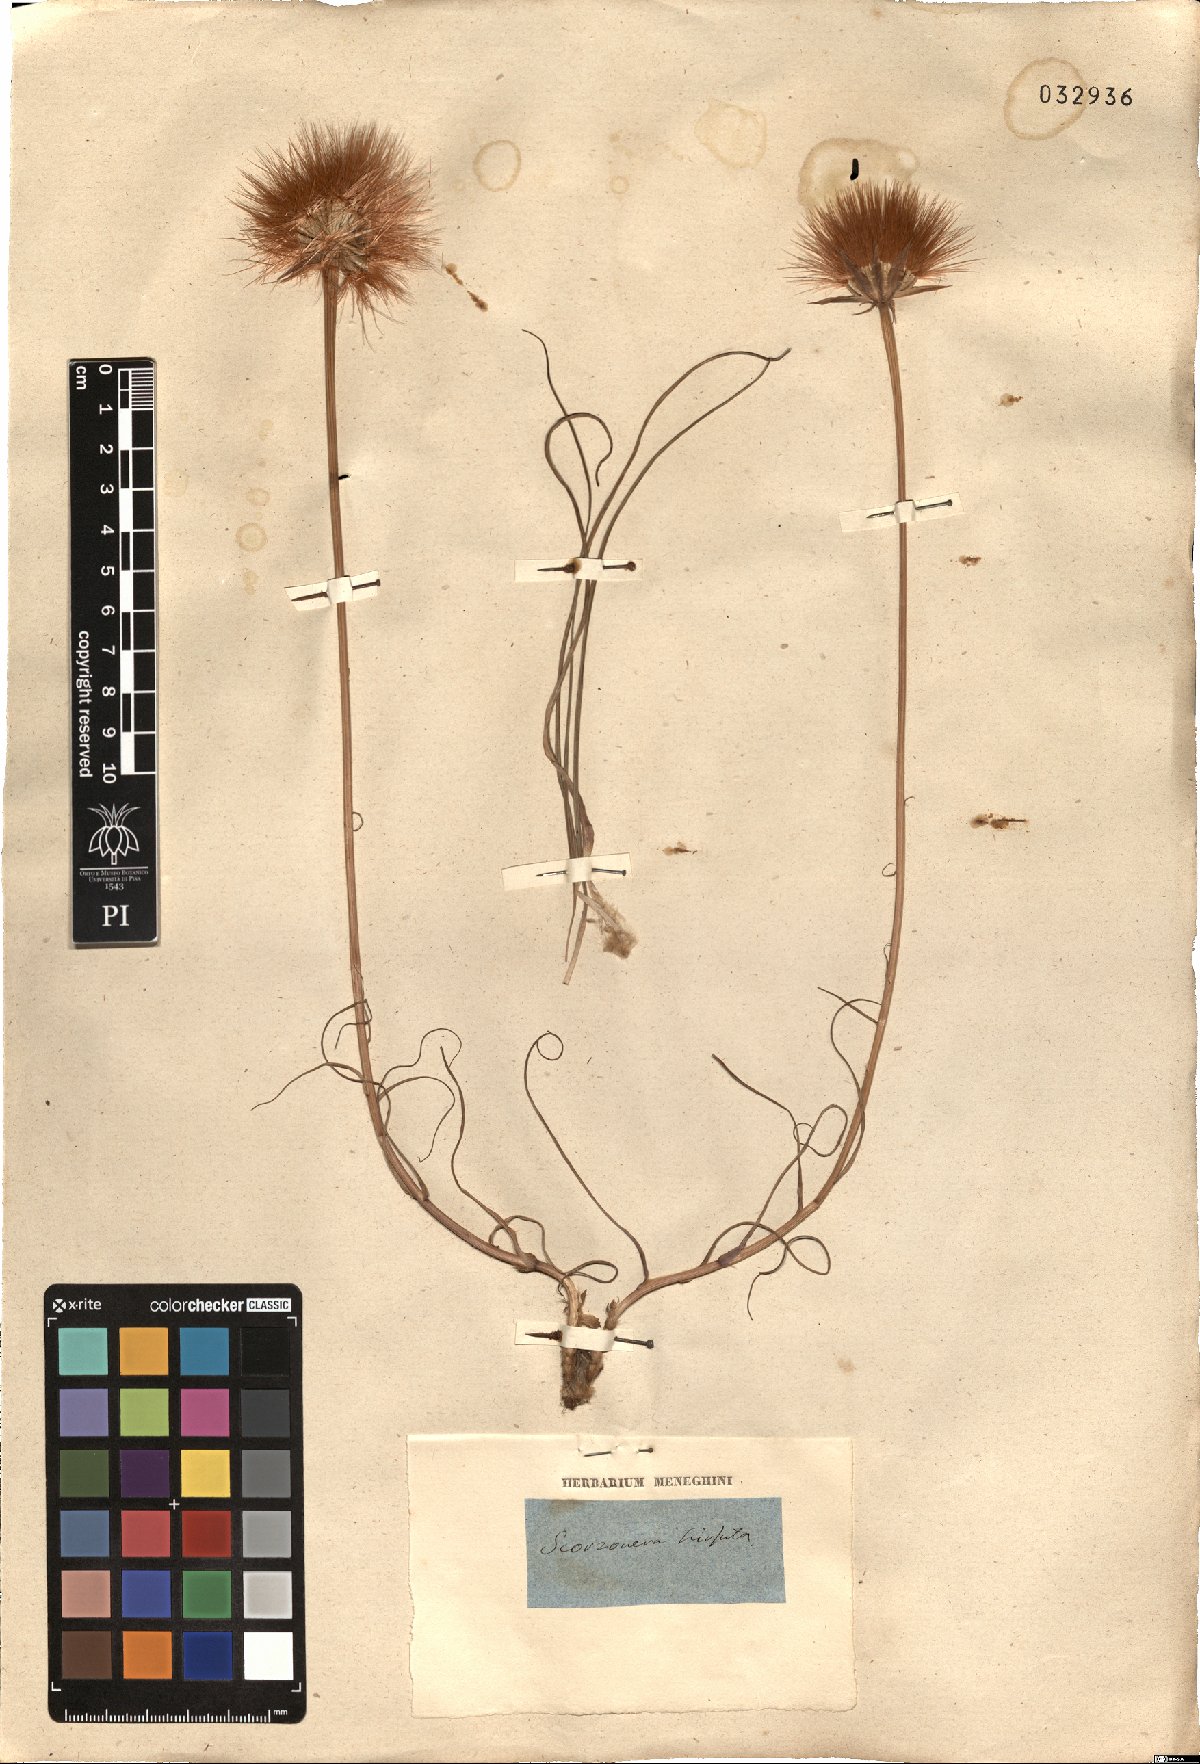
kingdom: Plantae
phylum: Tracheophyta
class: Magnoliopsida
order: Asterales
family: Asteraceae
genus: Gelasia
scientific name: Gelasia hirsuta
